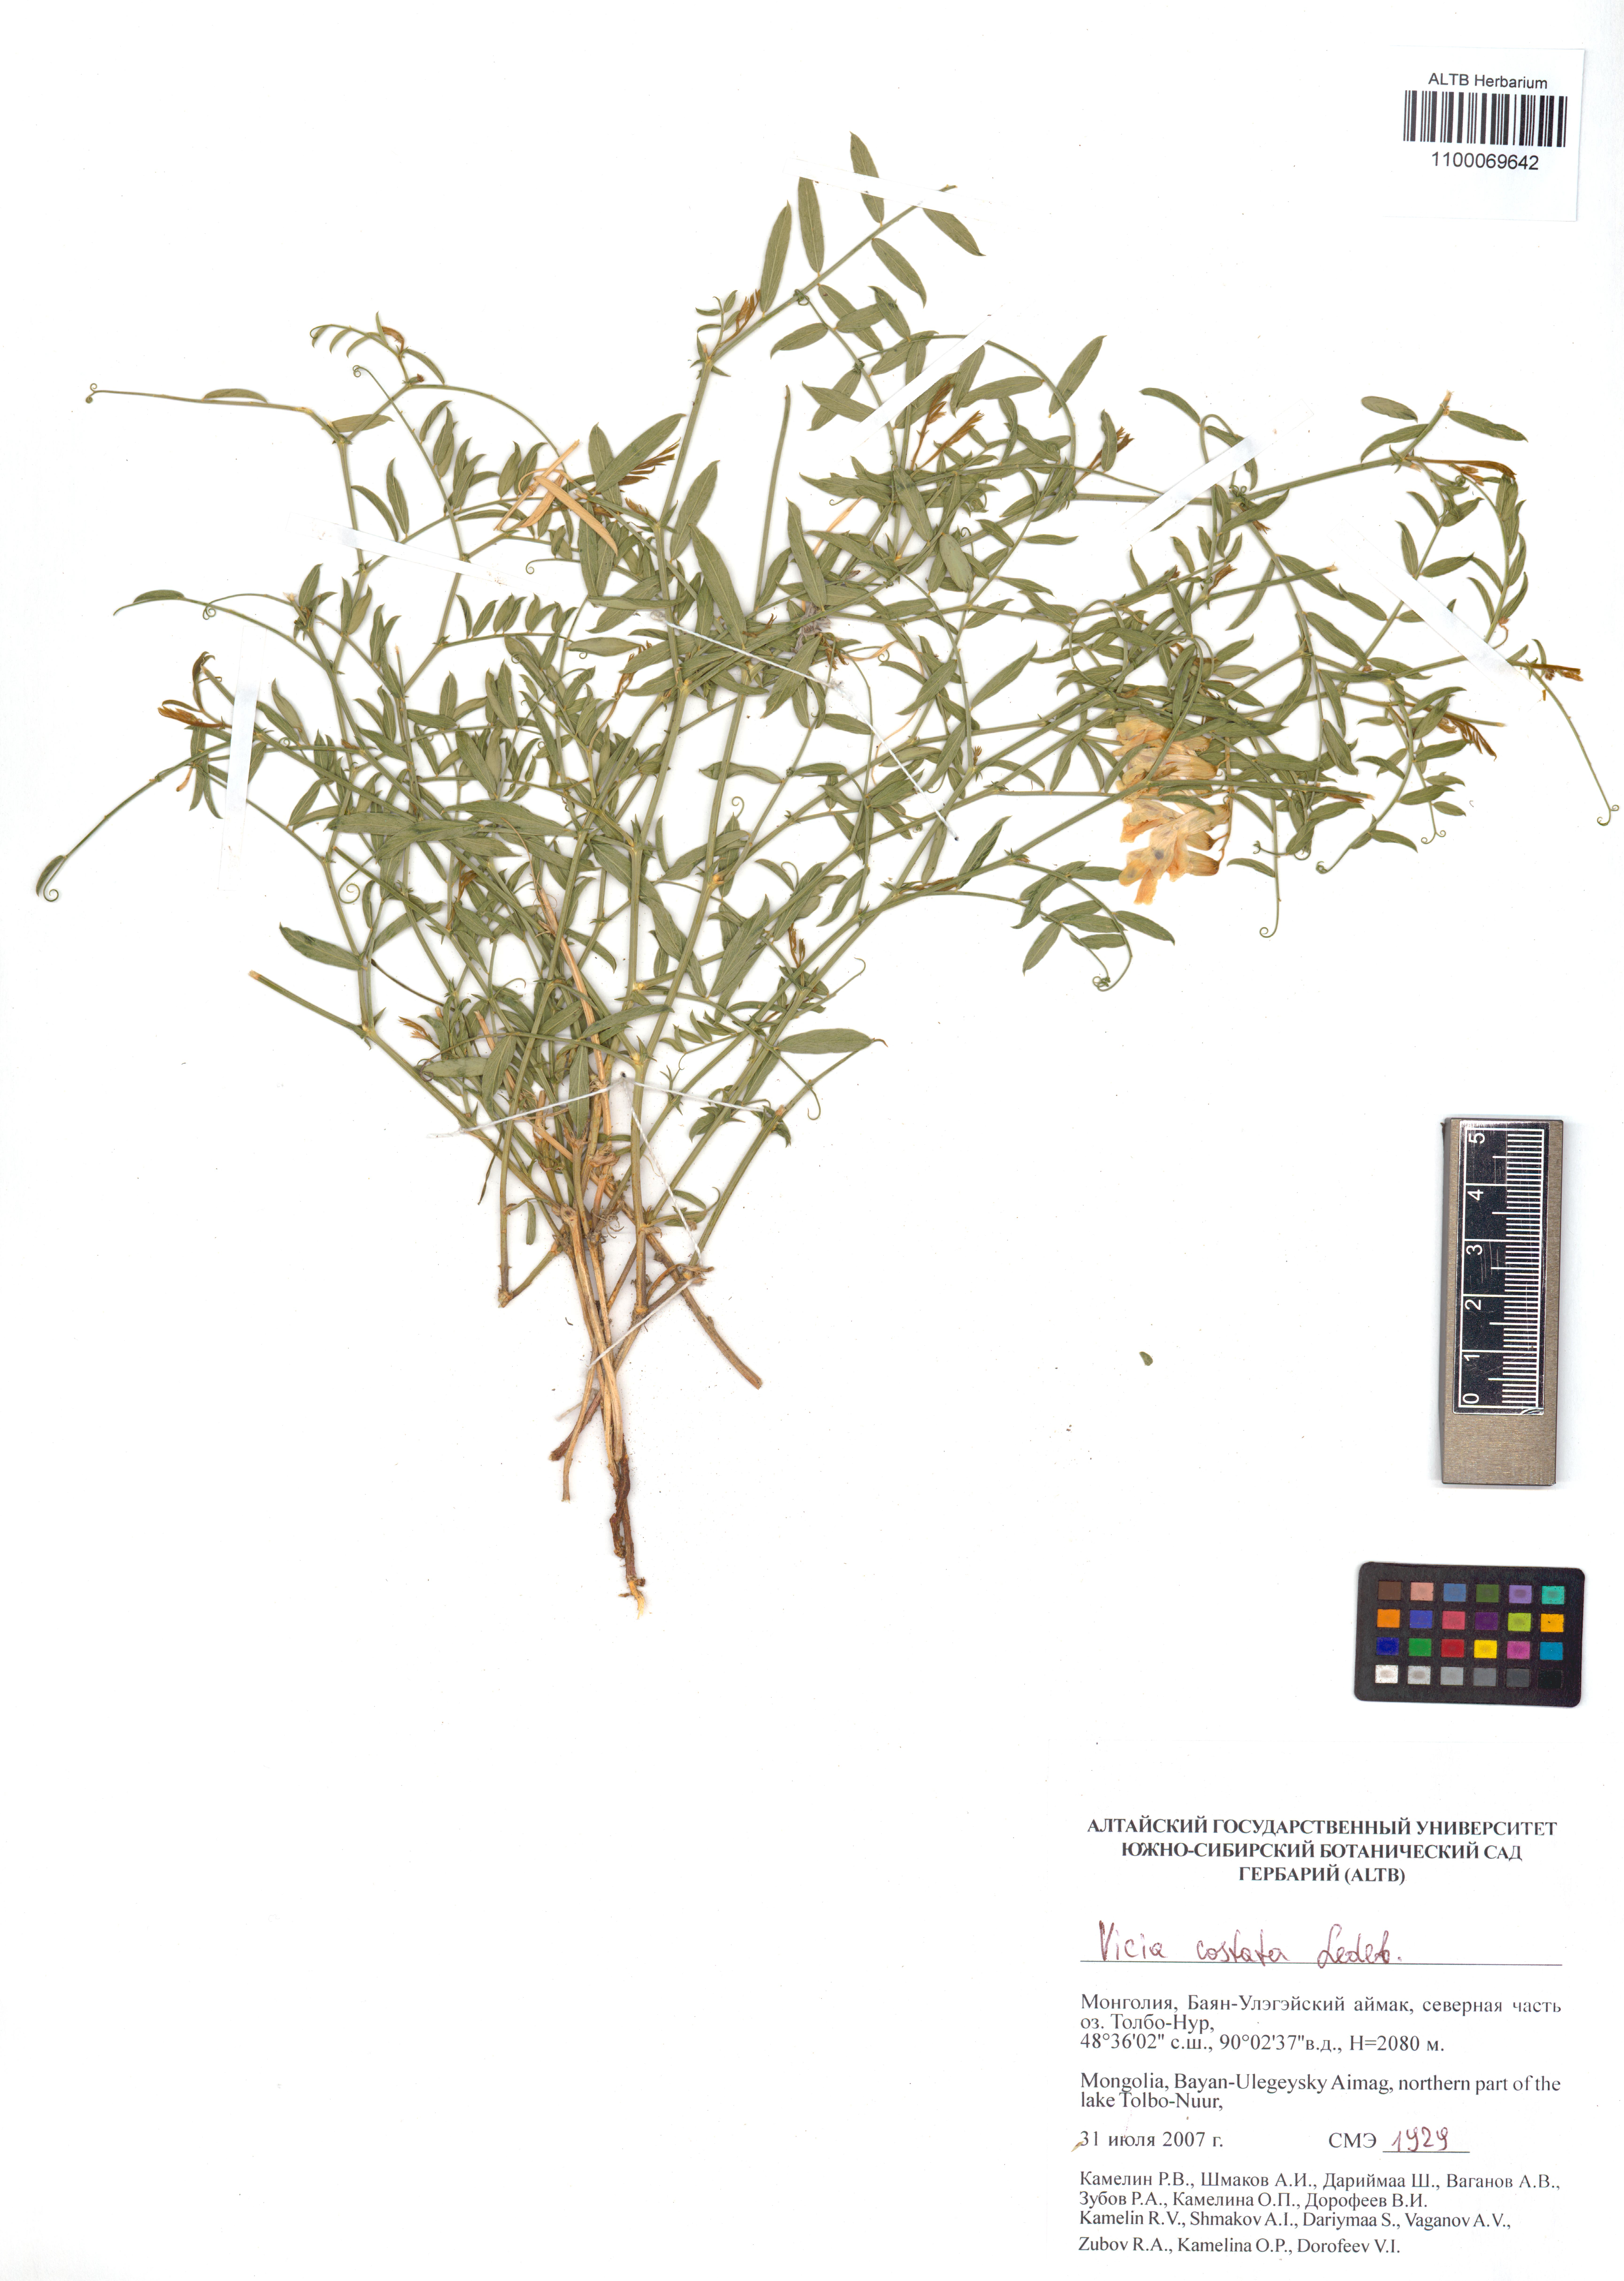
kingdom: Plantae
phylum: Tracheophyta
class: Magnoliopsida
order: Fabales
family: Fabaceae
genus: Vicia
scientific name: Vicia costata
